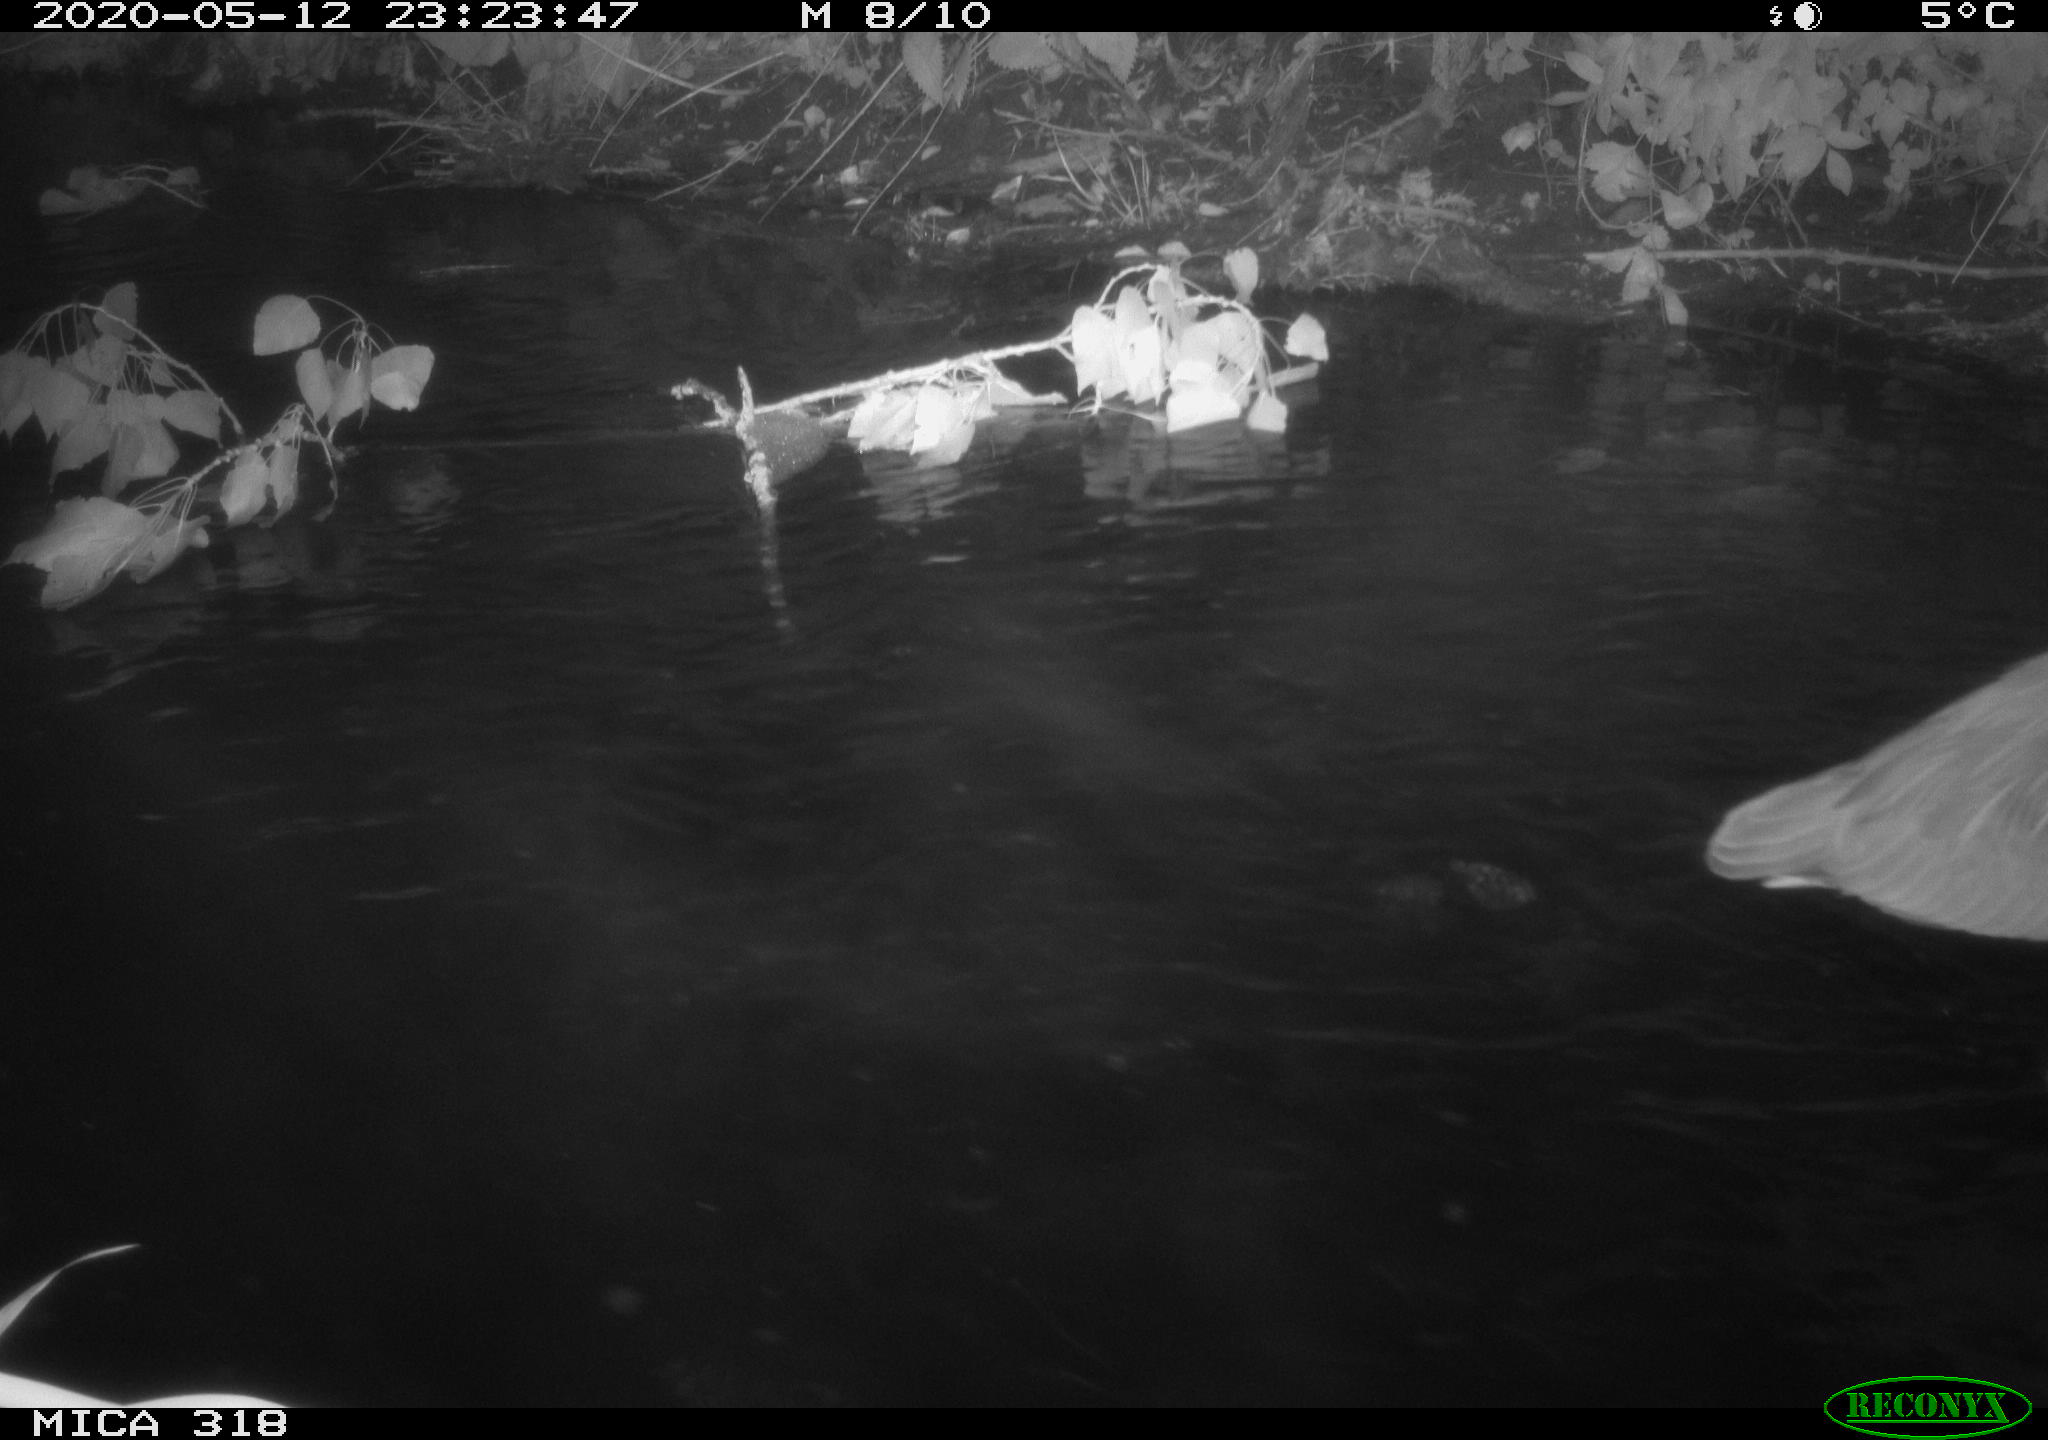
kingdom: Animalia
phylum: Chordata
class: Aves
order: Pelecaniformes
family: Ardeidae
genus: Ardea
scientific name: Ardea cinerea
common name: Grey heron
